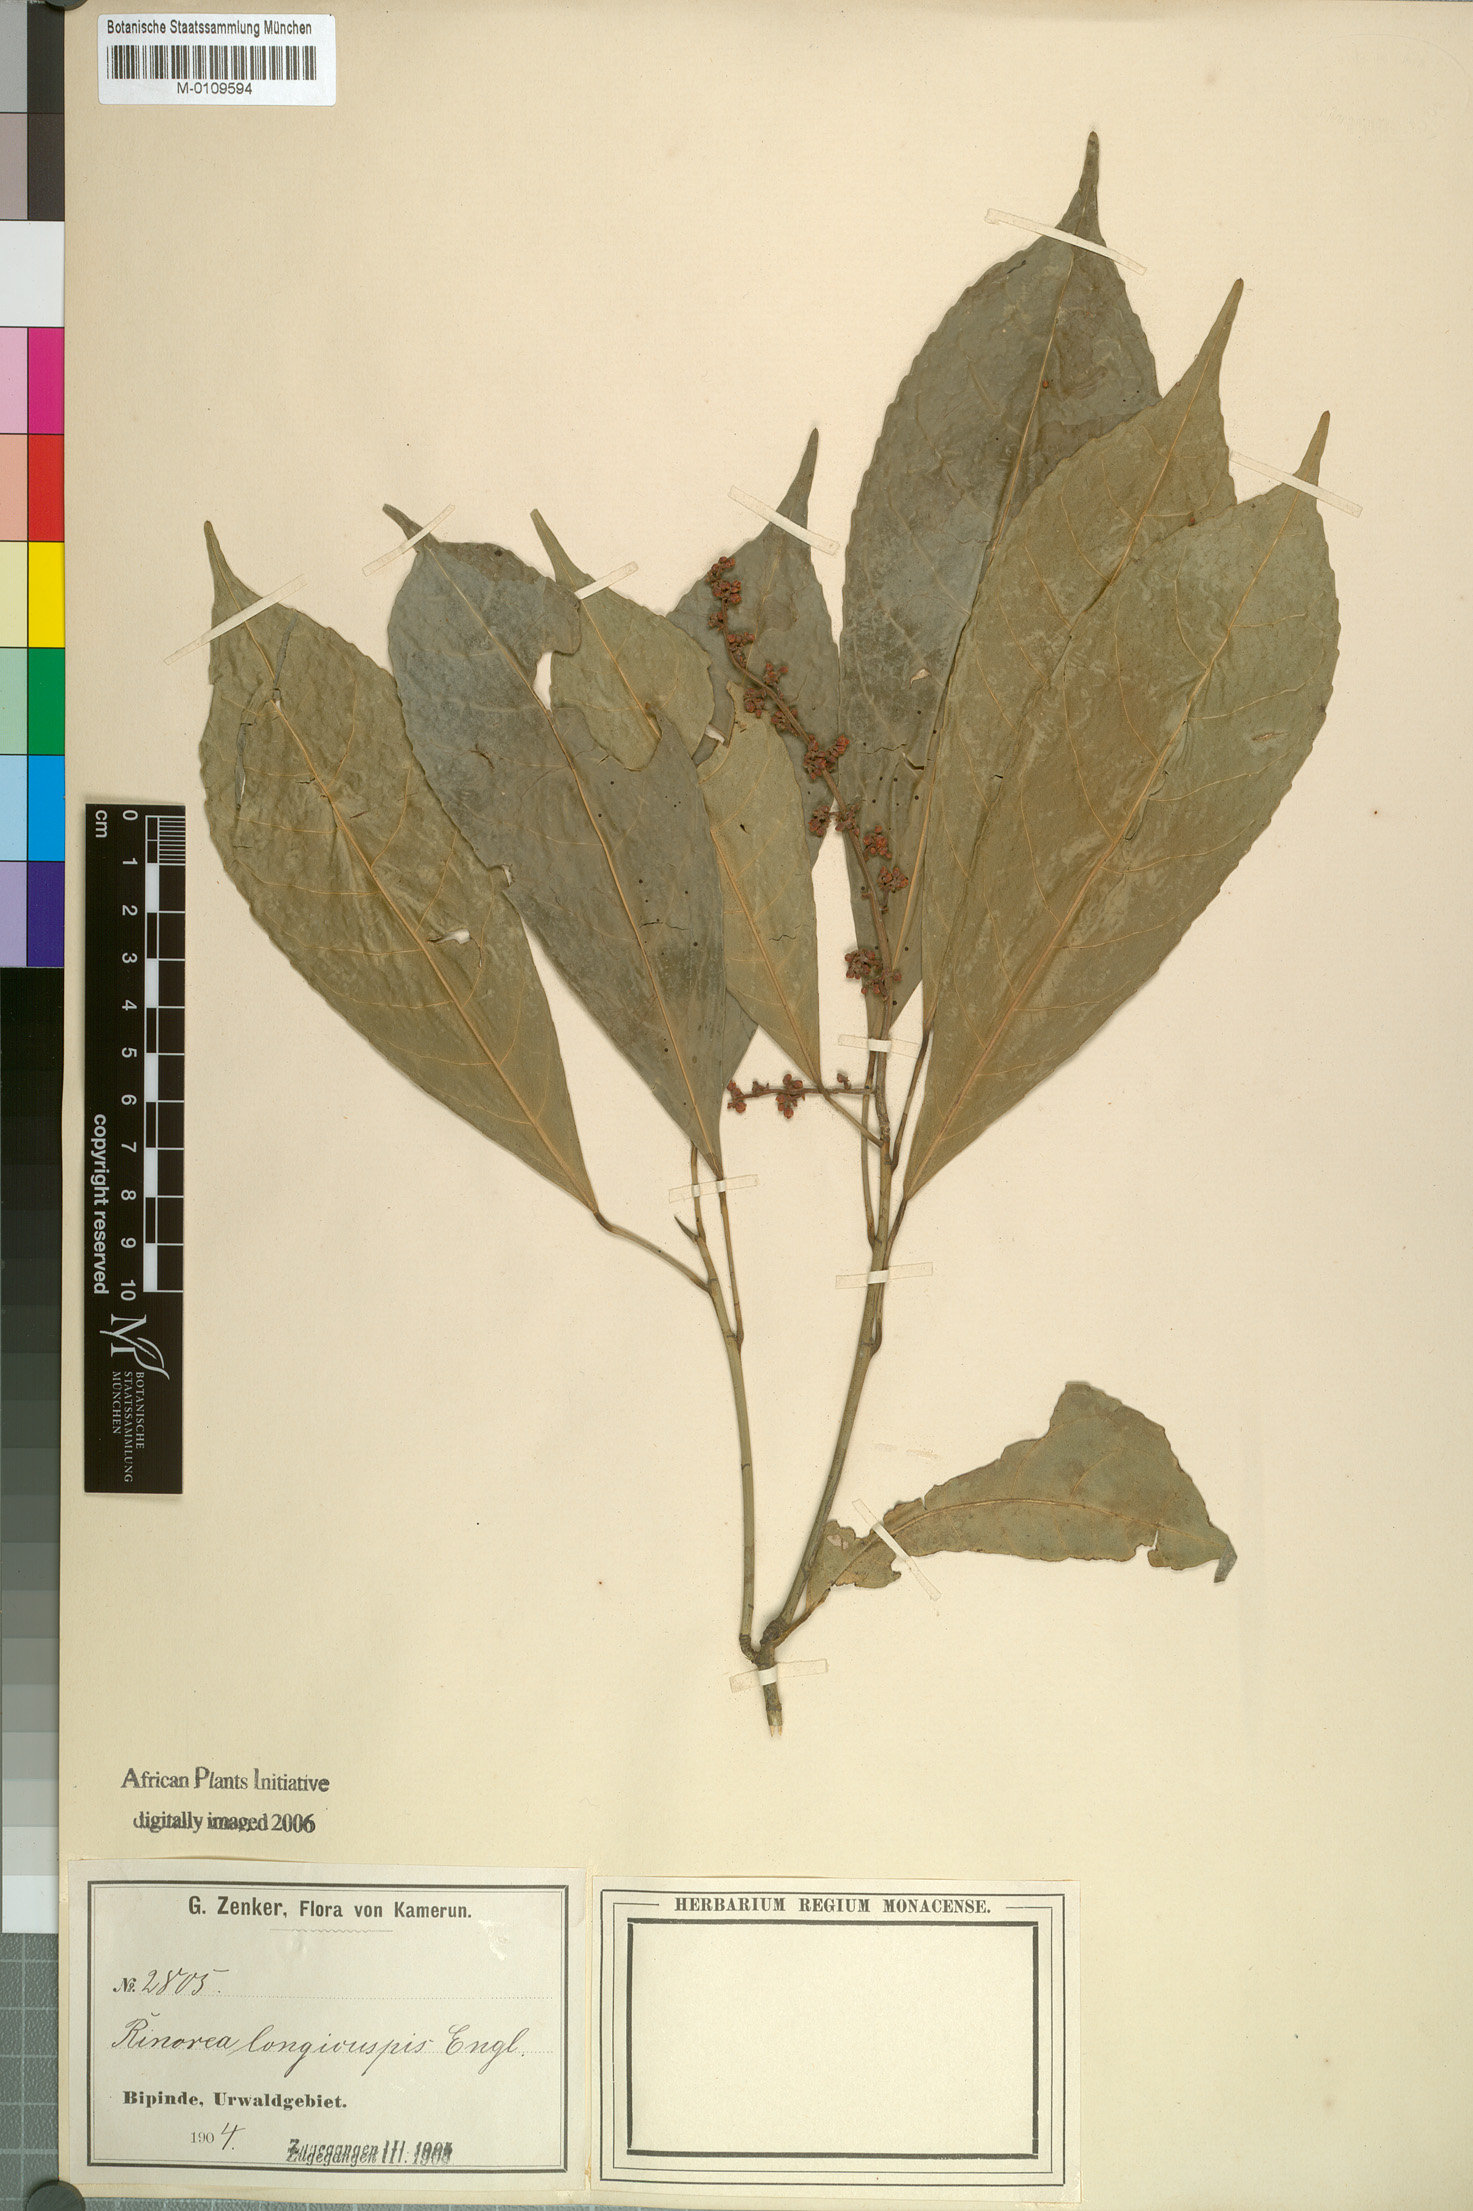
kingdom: Plantae
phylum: Tracheophyta
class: Magnoliopsida
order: Malpighiales
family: Violaceae
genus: Rinorea
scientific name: Rinorea welwitschii
